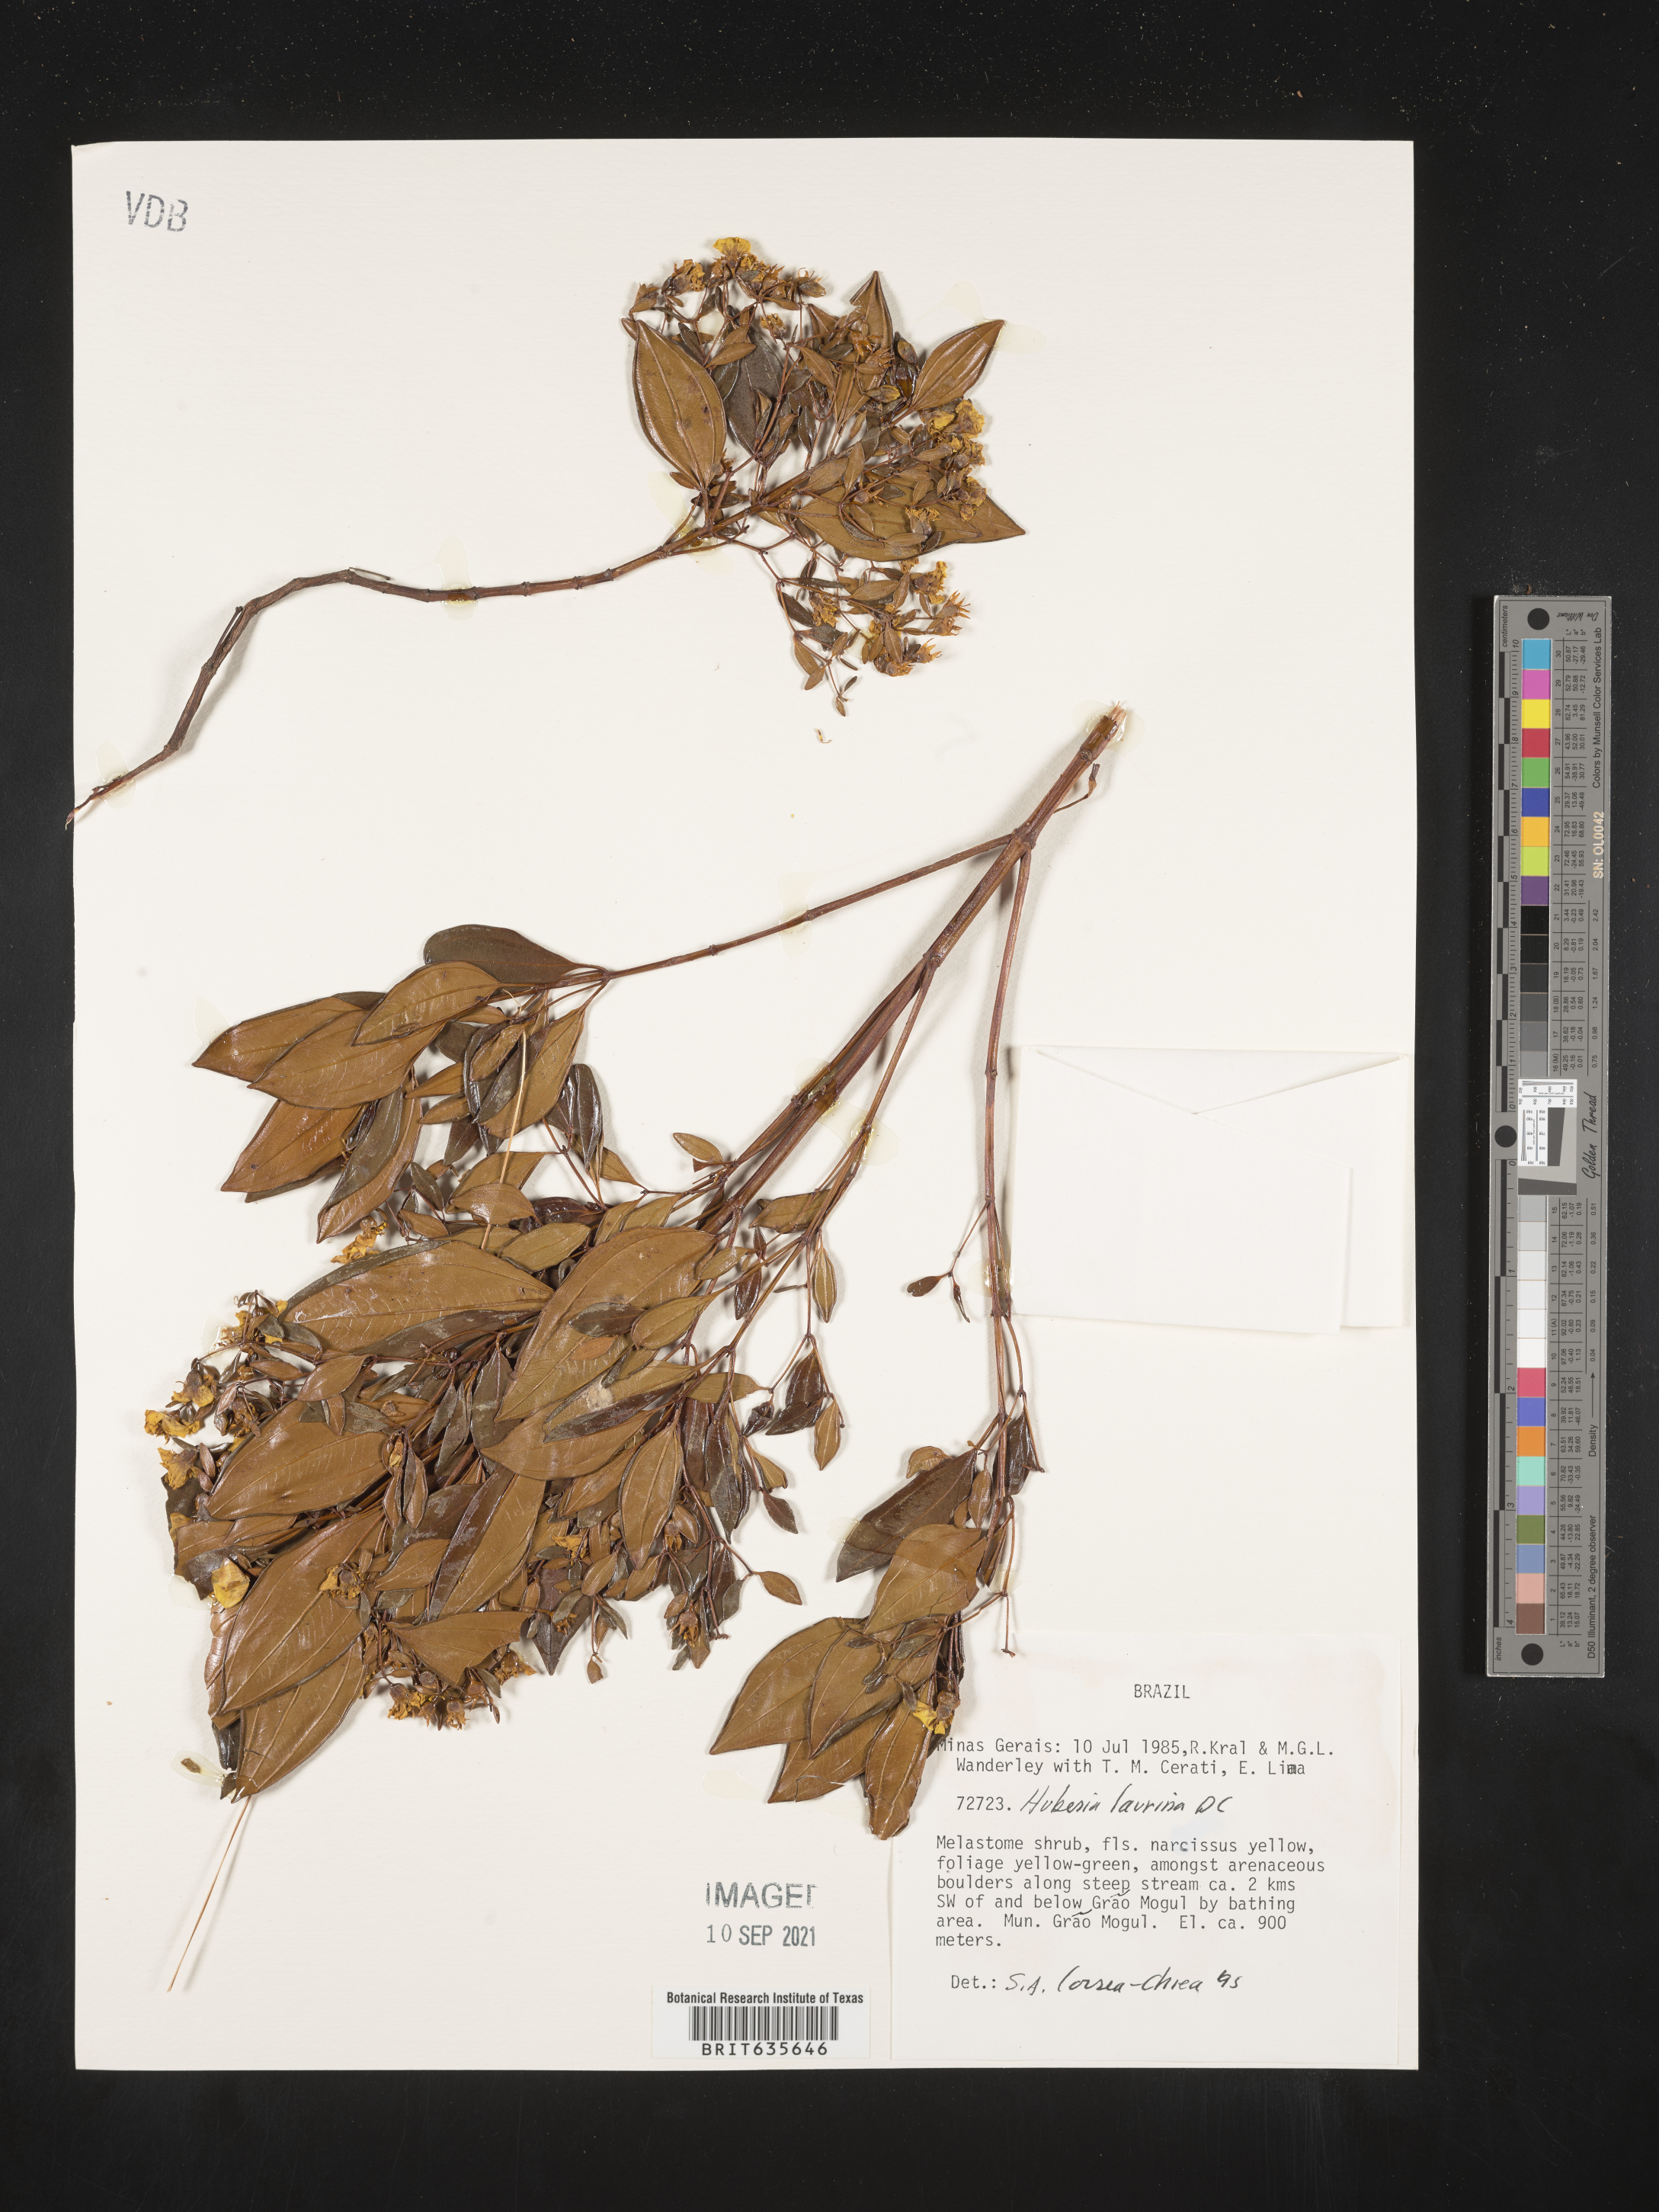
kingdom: Plantae
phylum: Tracheophyta
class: Magnoliopsida
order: Myrtales
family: Melastomataceae
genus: Huberia
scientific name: Huberia
